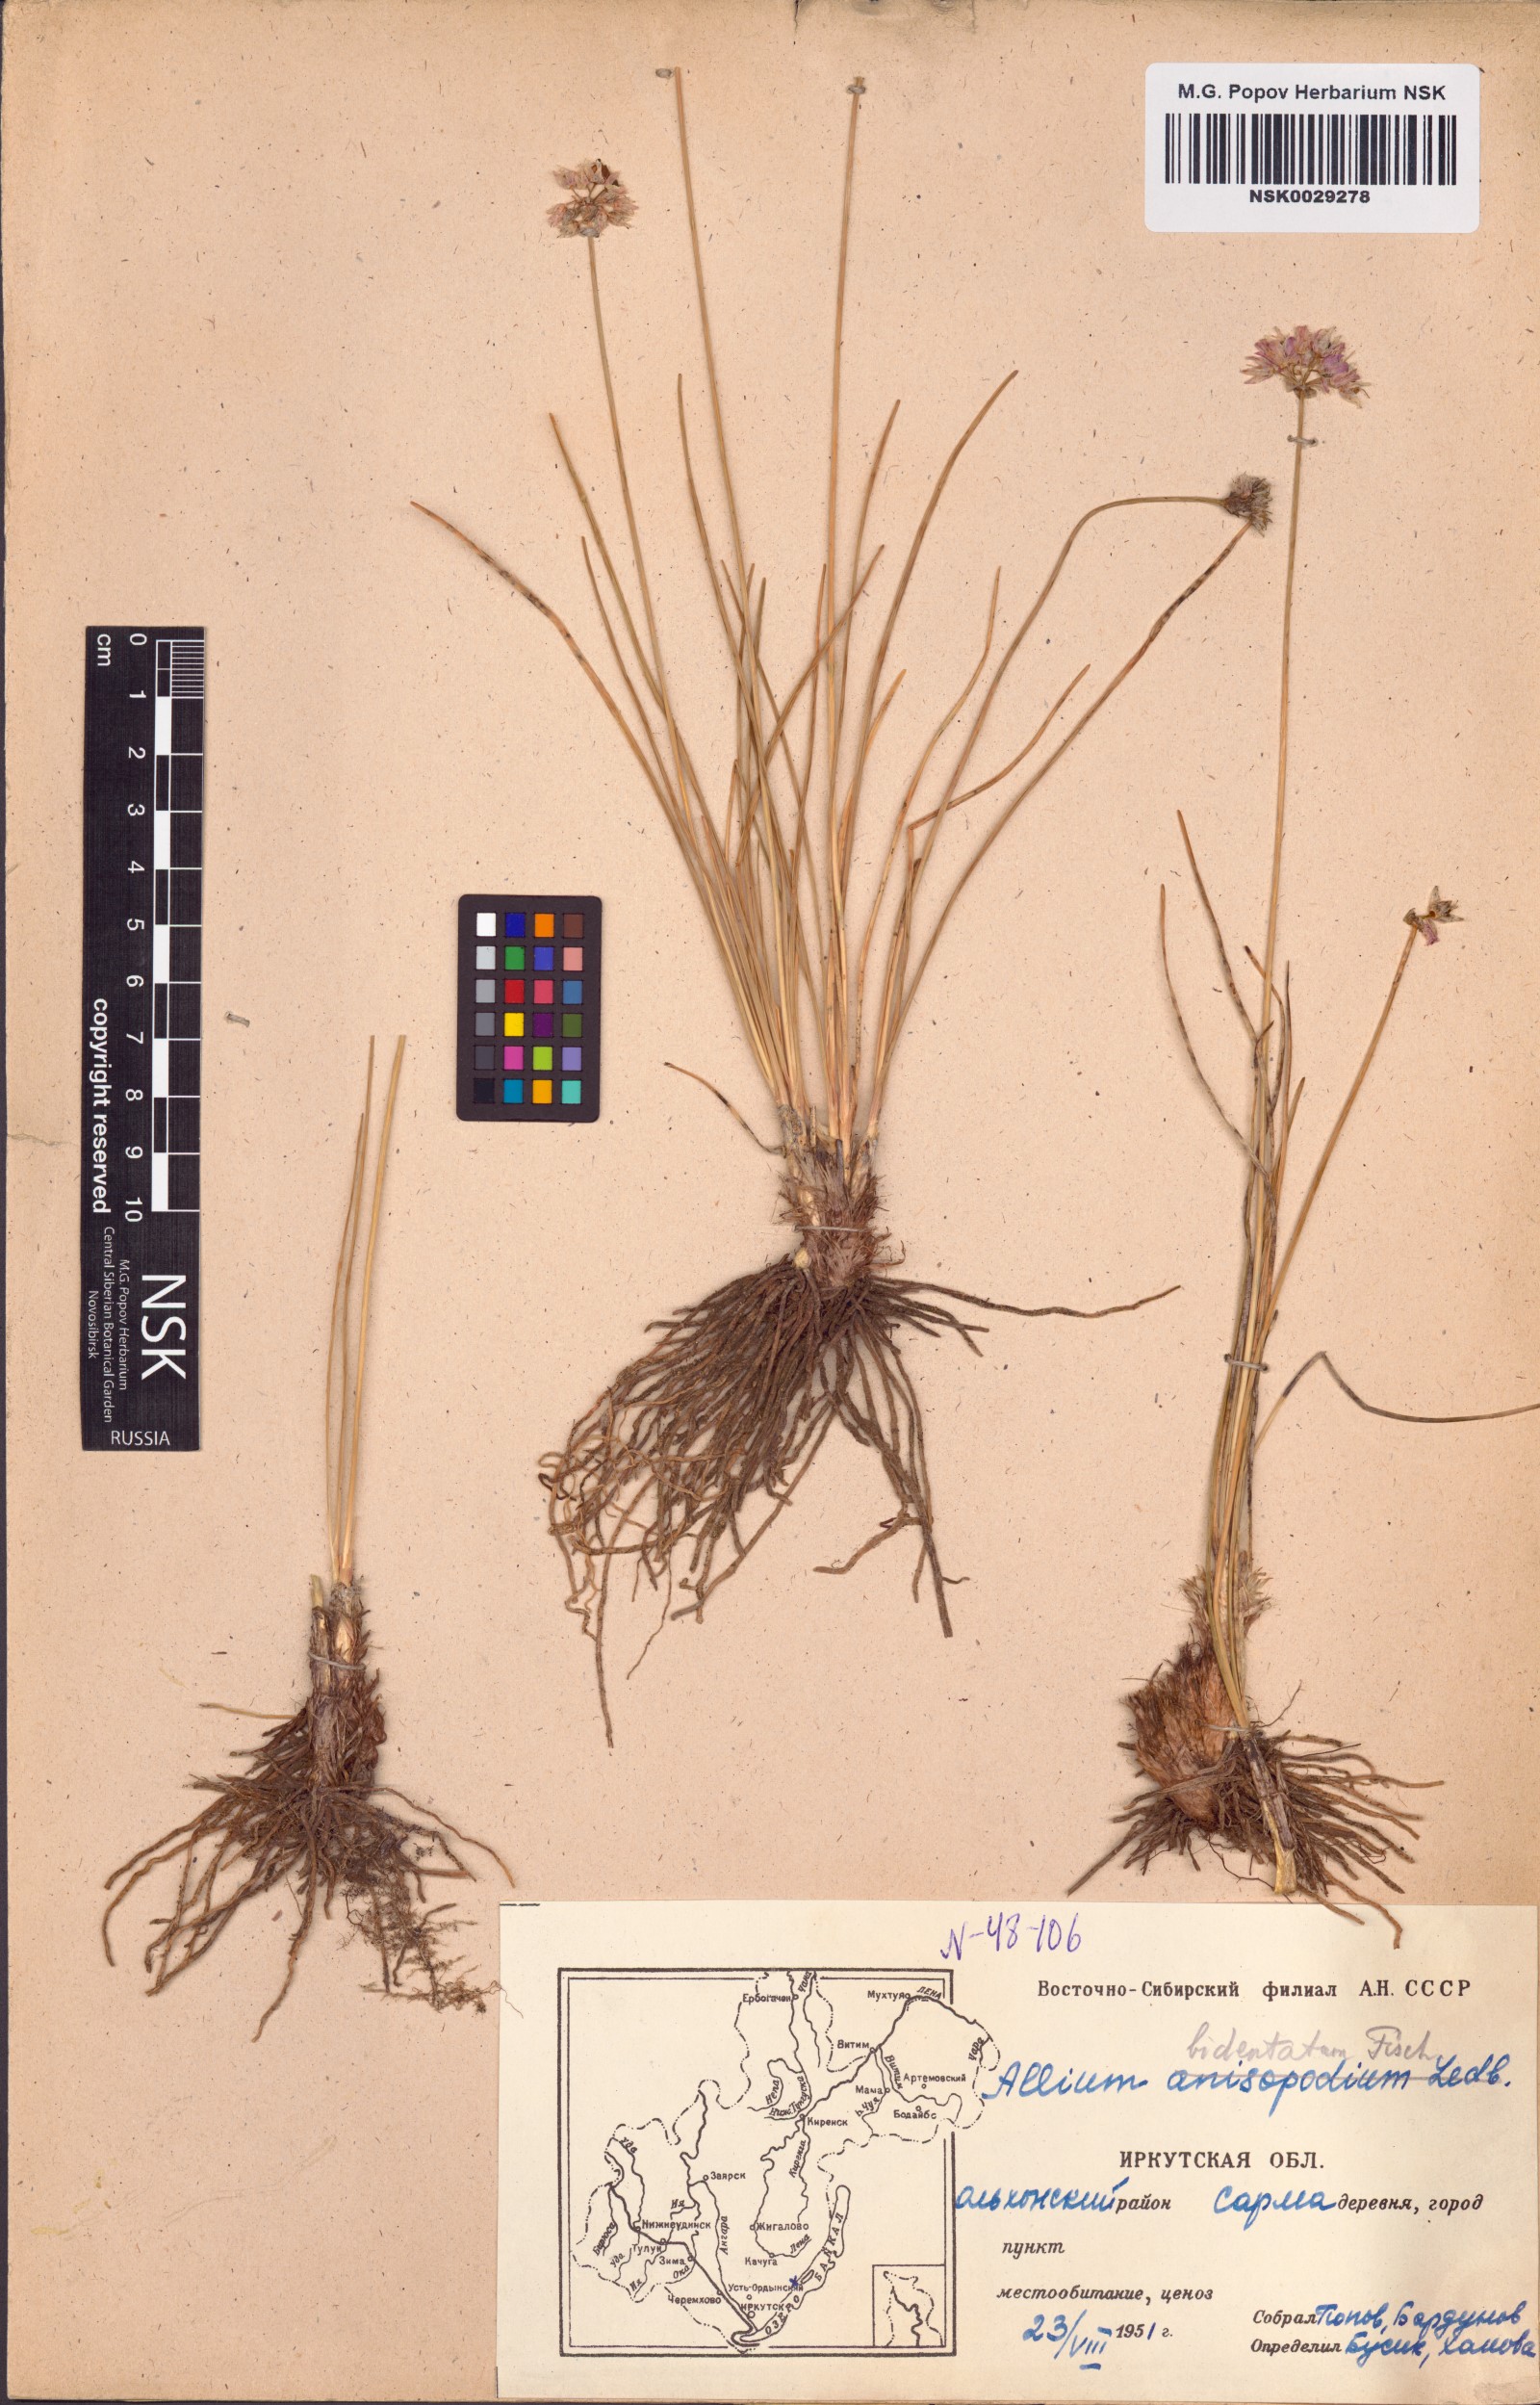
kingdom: Plantae
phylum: Tracheophyta
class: Liliopsida
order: Asparagales
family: Amaryllidaceae
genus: Allium
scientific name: Allium bidentatum
